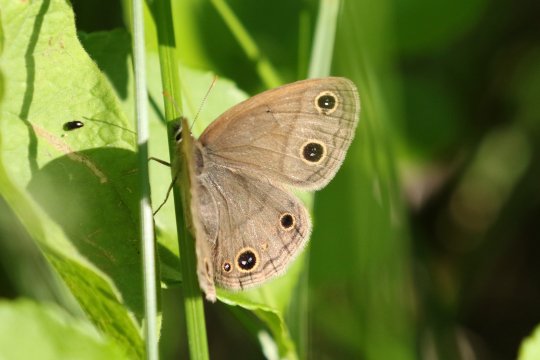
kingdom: Animalia
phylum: Arthropoda
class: Insecta
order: Lepidoptera
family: Nymphalidae
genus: Euptychia
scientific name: Euptychia cymela
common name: Little Wood Satyr
